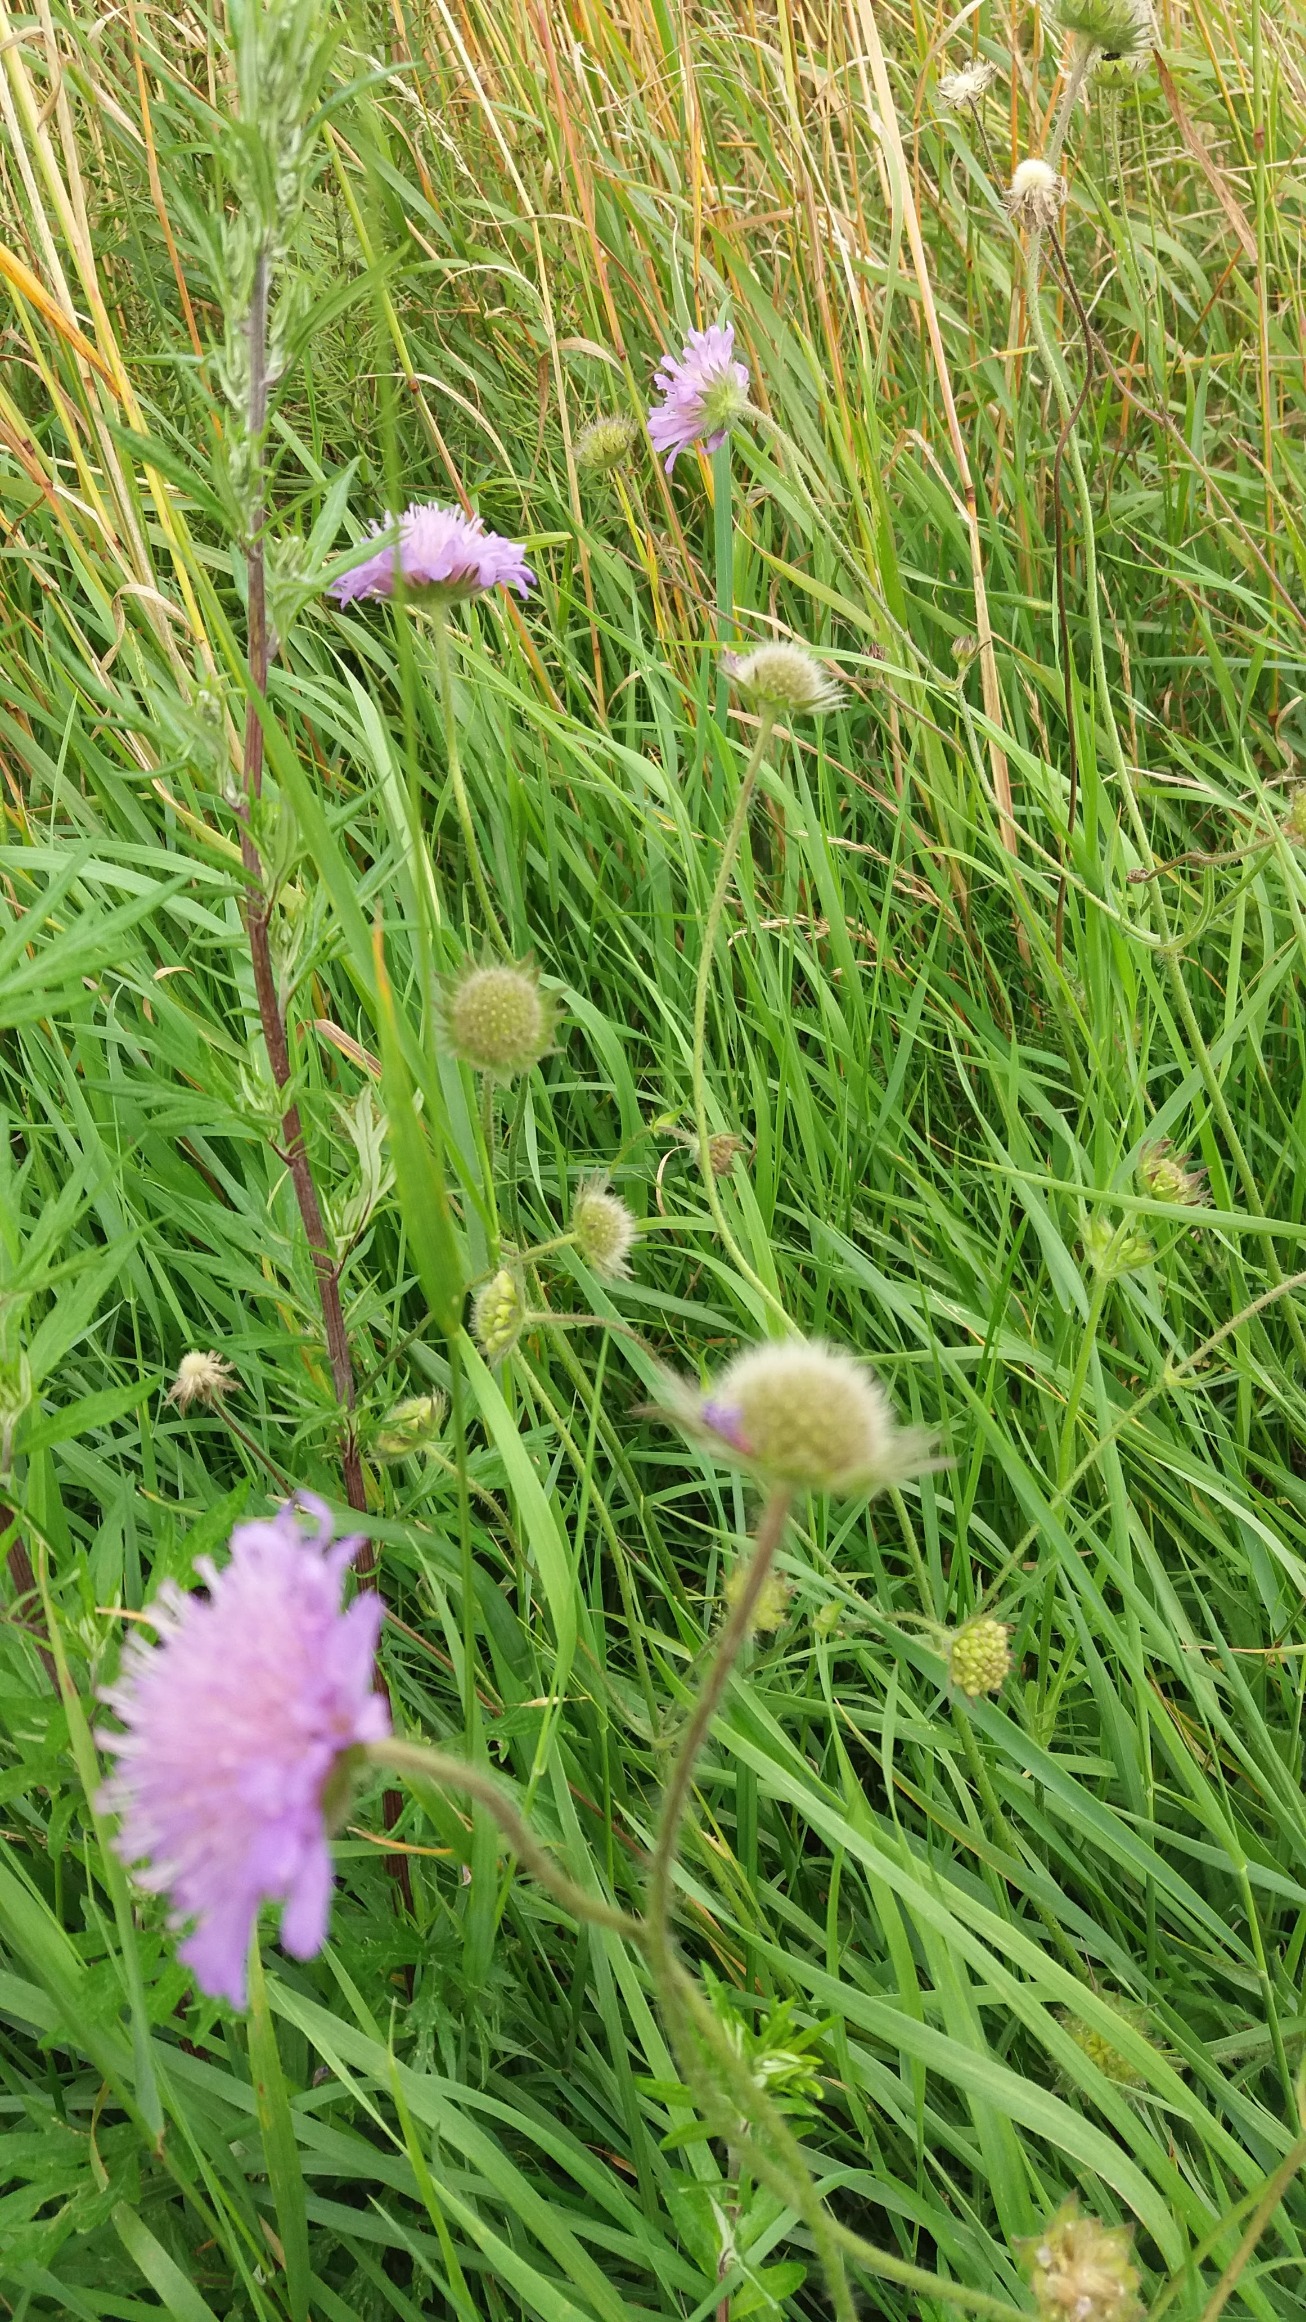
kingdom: Plantae
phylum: Tracheophyta
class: Magnoliopsida
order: Dipsacales
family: Caprifoliaceae
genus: Knautia
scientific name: Knautia arvensis
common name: Blåhat
